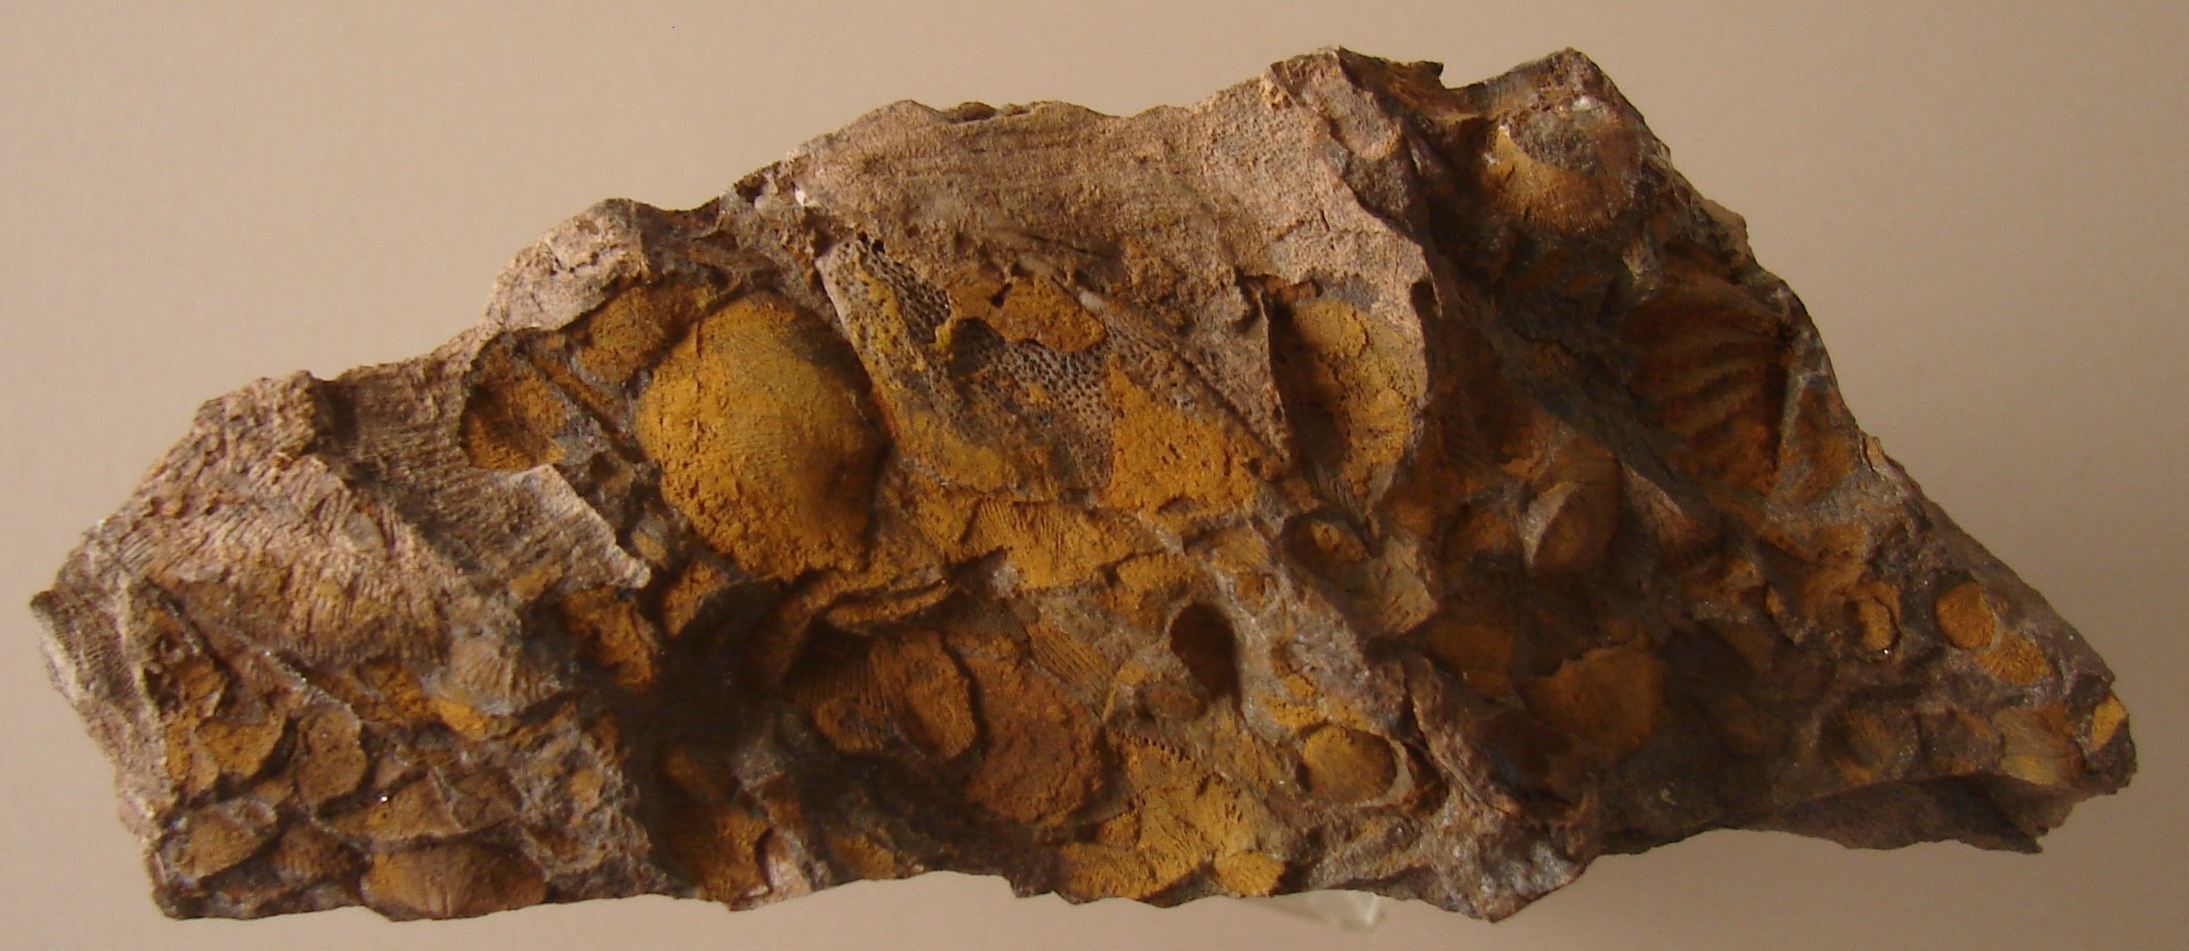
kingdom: Animalia
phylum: Brachiopoda
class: Rhynchonellata
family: Hysterolitidae
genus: Arduspirifer
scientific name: Arduspirifer
